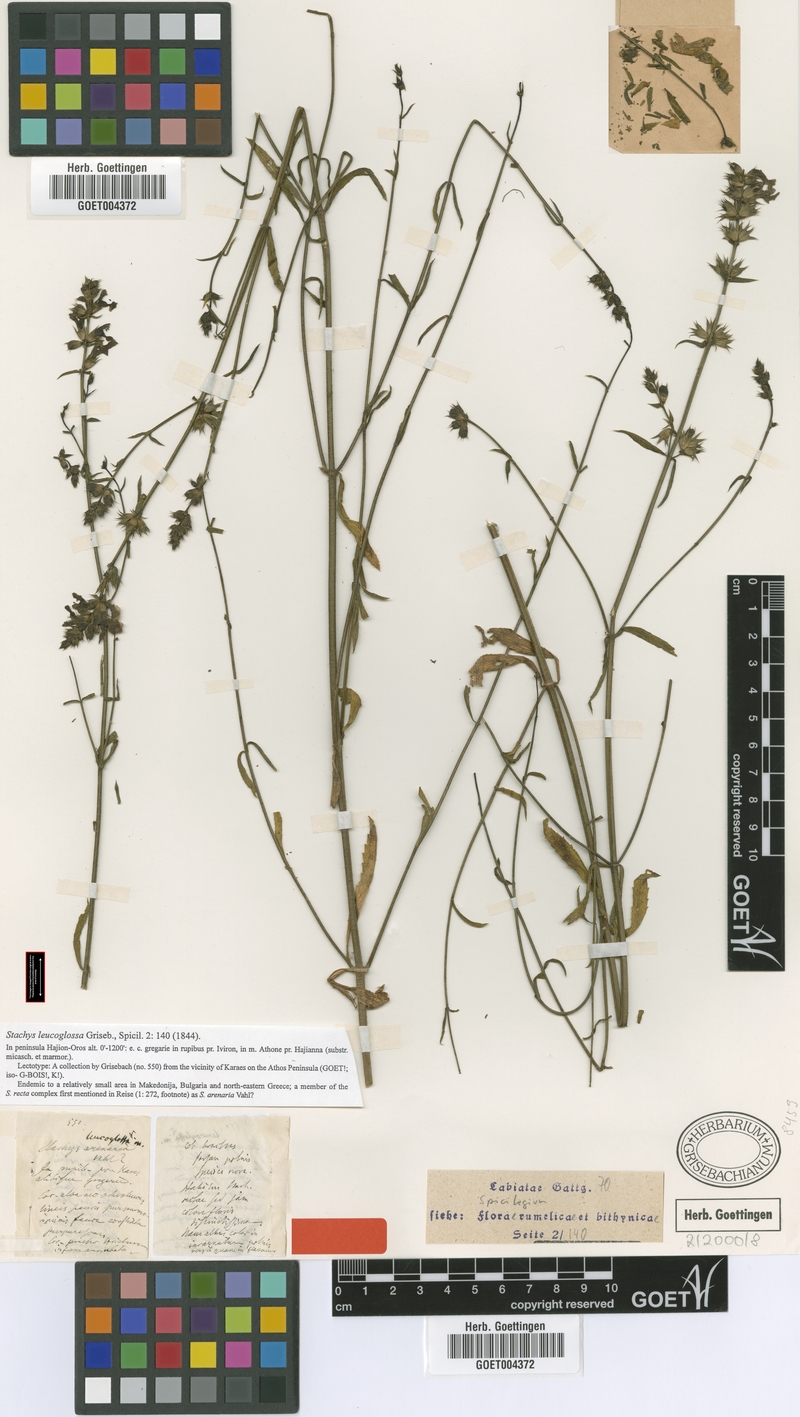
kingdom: Plantae
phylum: Tracheophyta
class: Magnoliopsida
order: Lamiales
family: Lamiaceae
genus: Stachys
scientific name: Stachys leucoglossa
